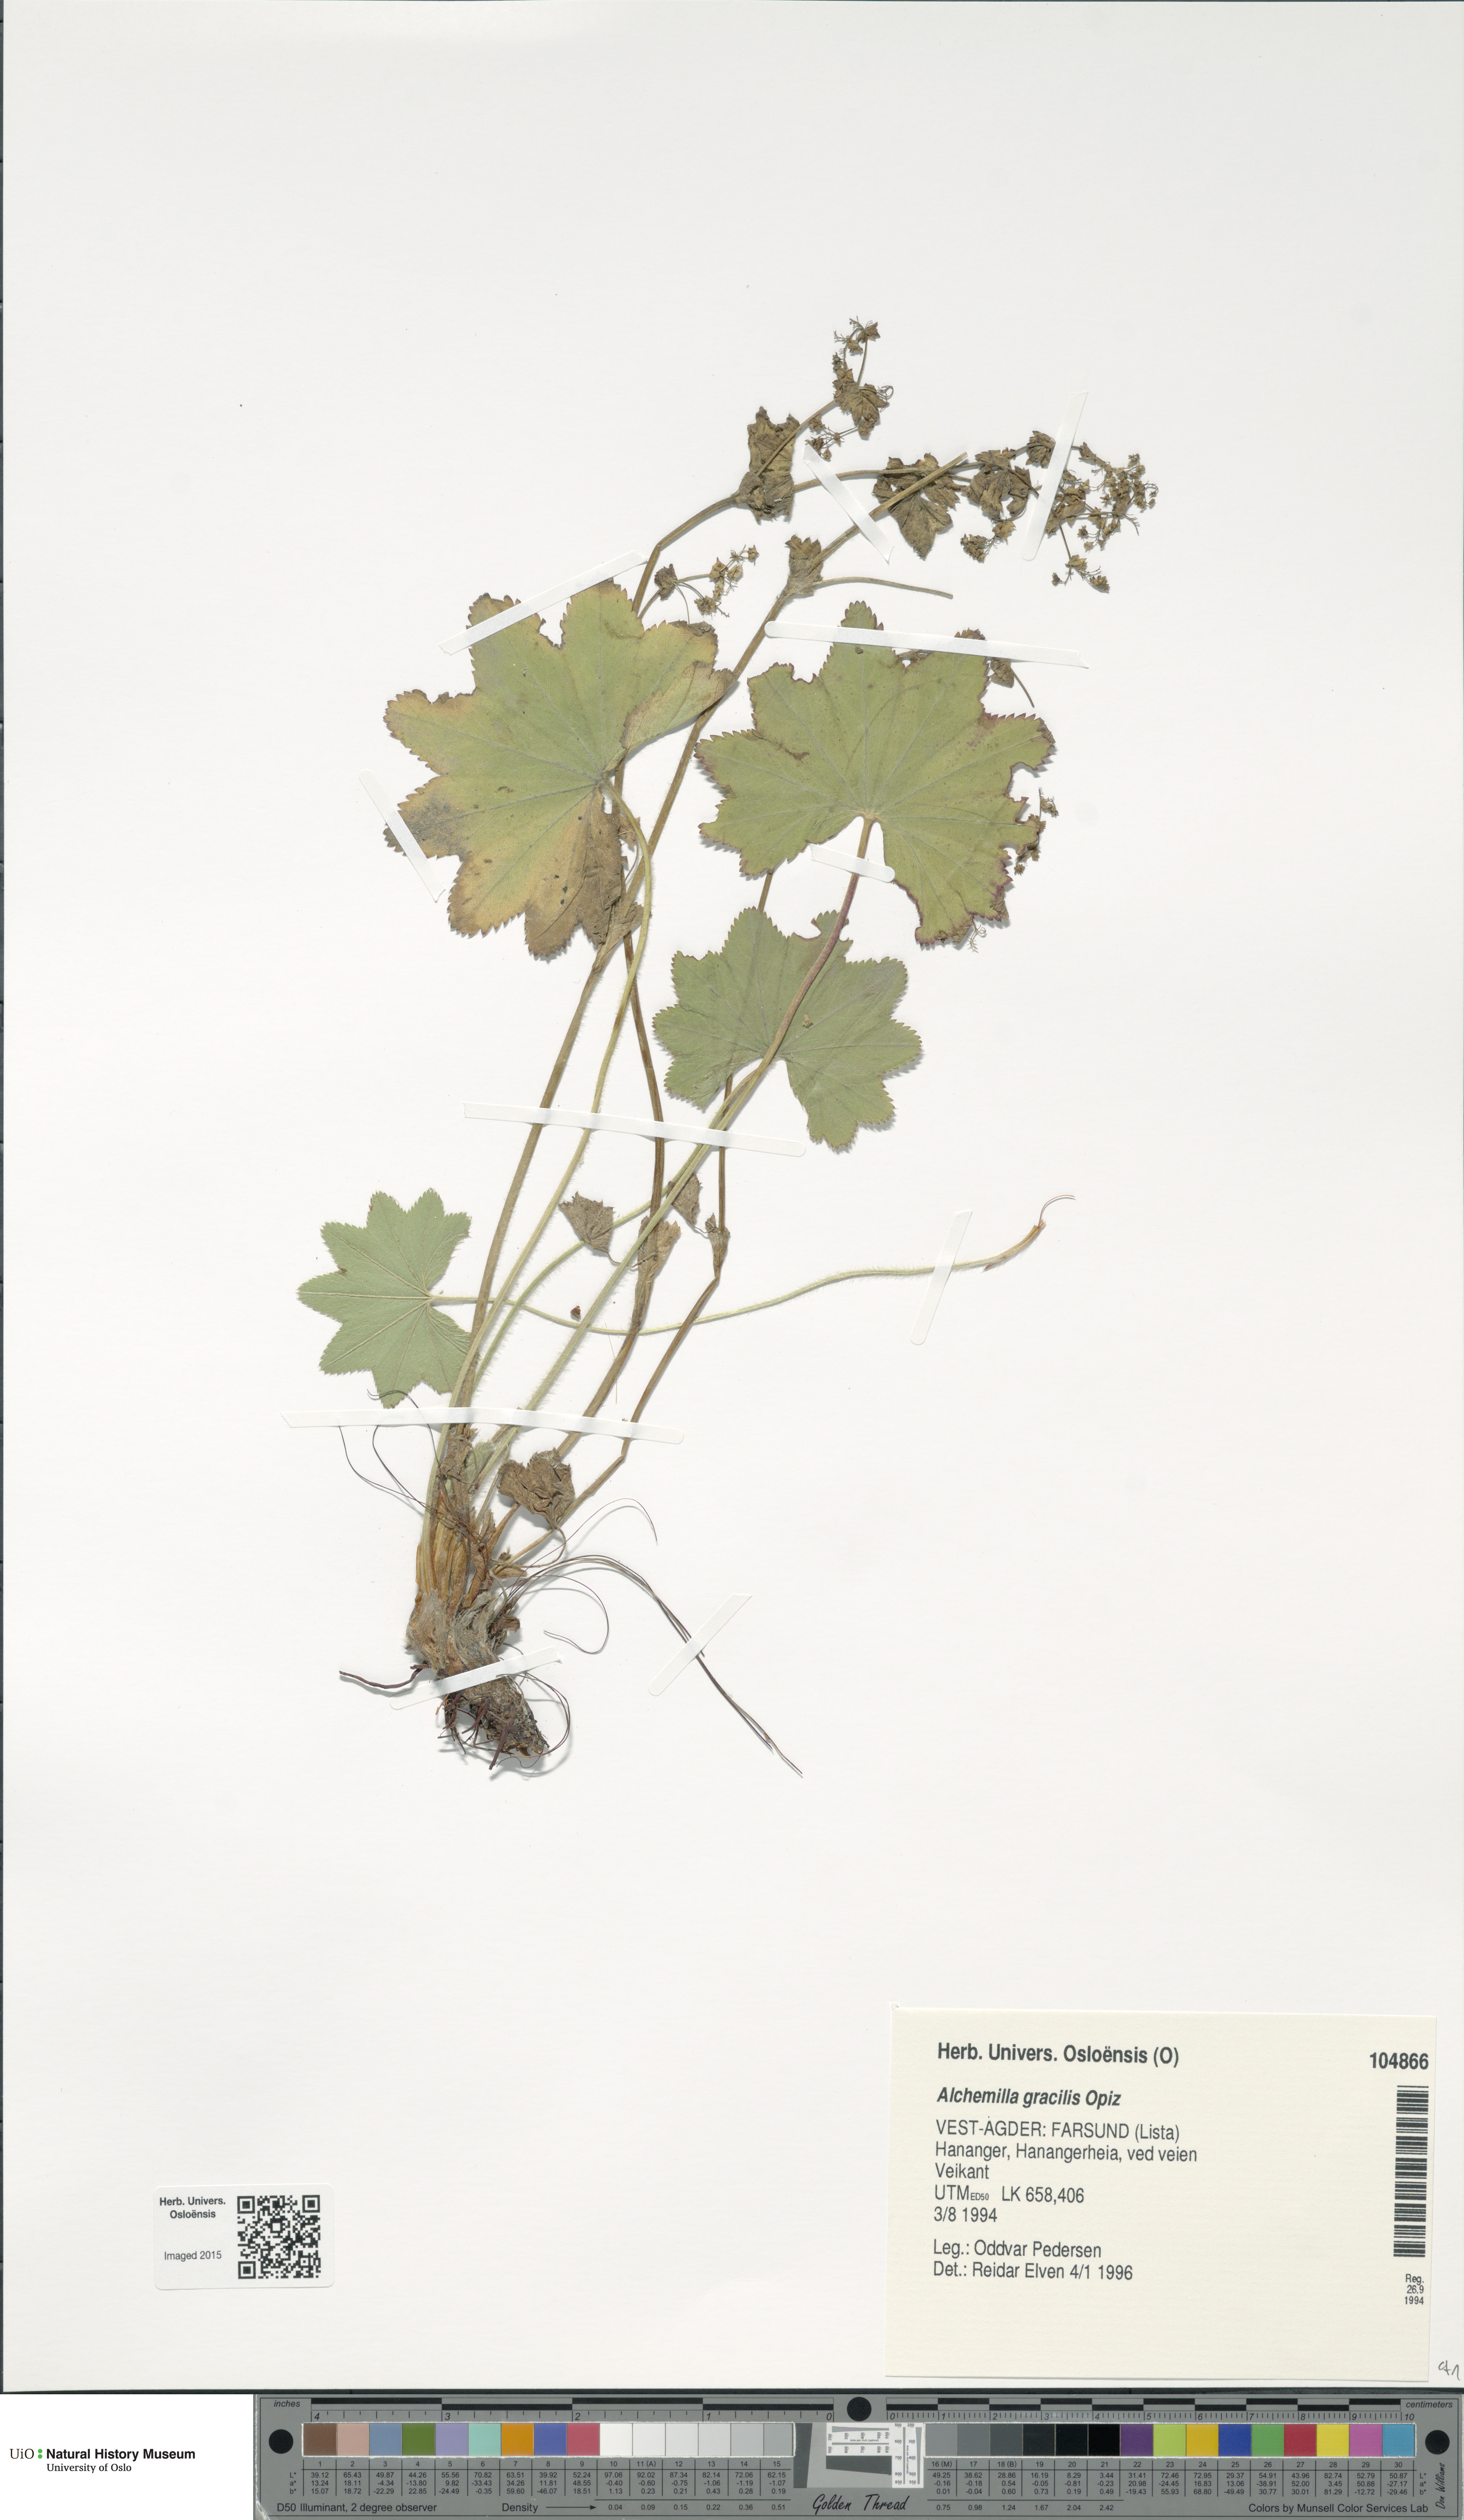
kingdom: Plantae
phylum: Tracheophyta
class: Magnoliopsida
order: Rosales
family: Rosaceae
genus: Alchemilla
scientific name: Alchemilla micans
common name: Gleaming lady's mantle
